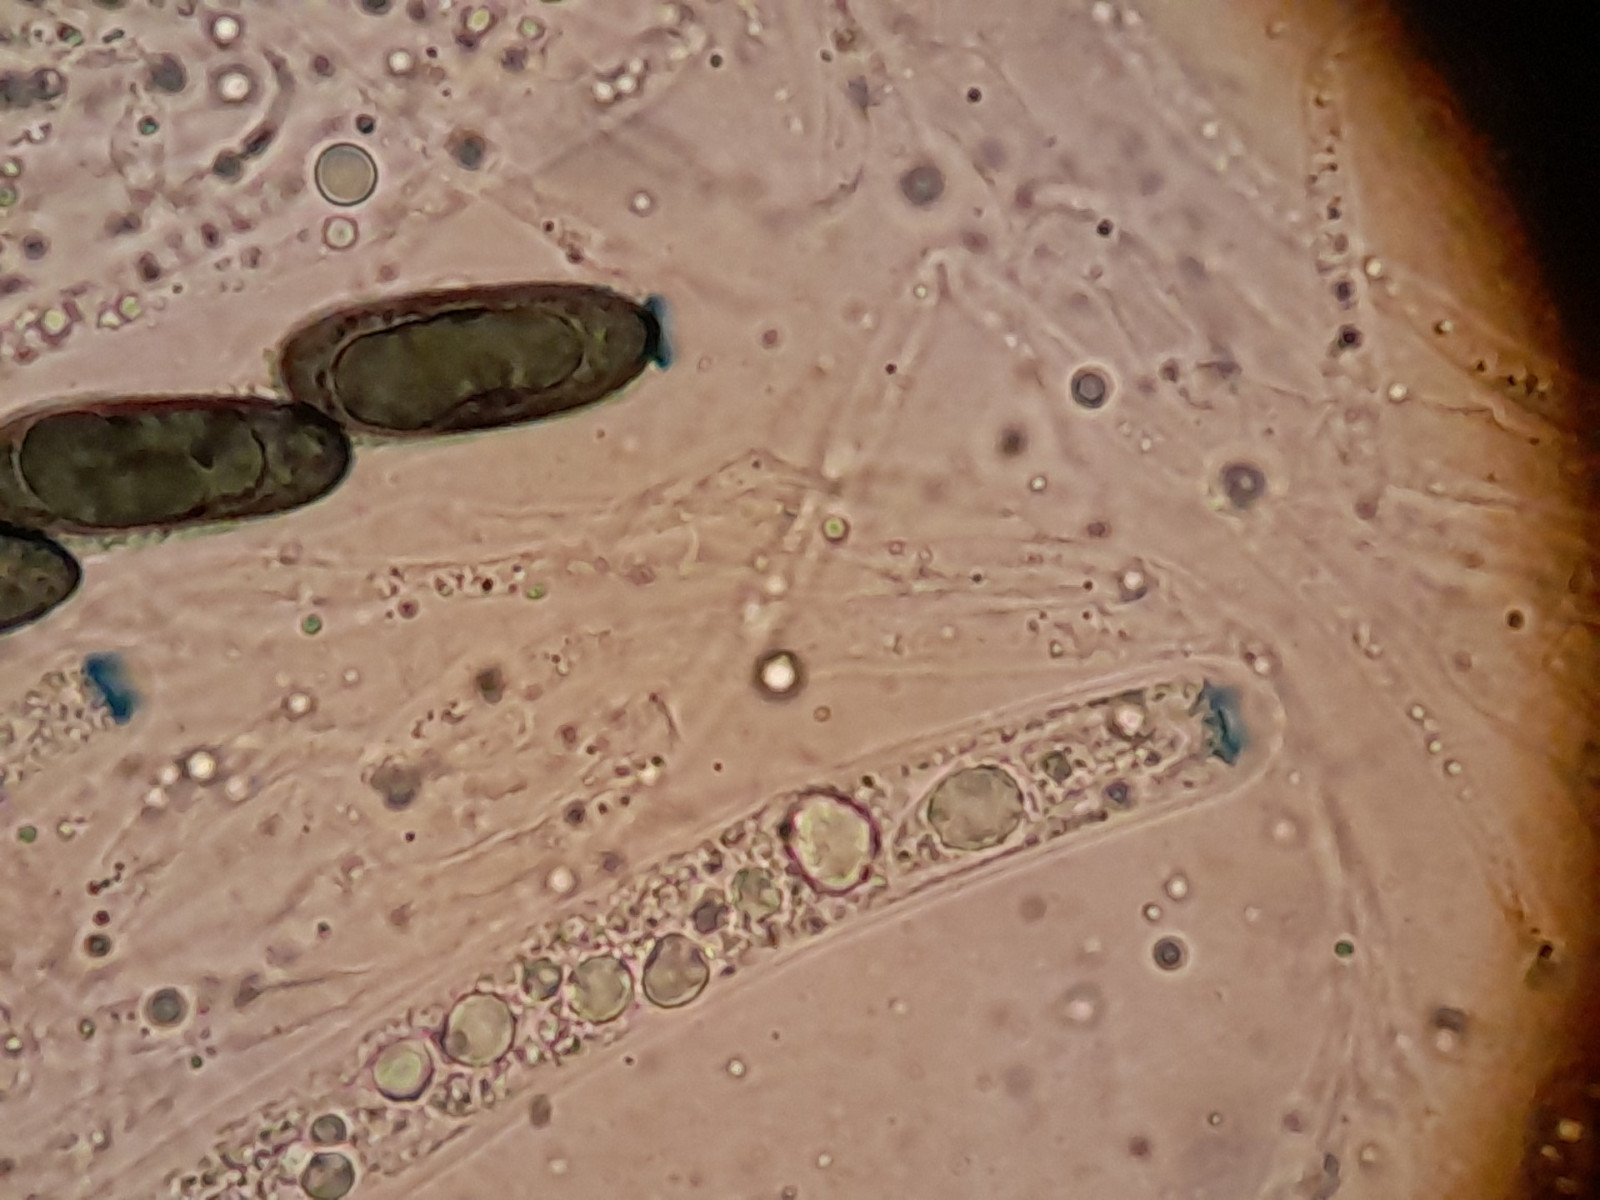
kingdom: Fungi
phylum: Ascomycota
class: Sordariomycetes
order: Xylariales
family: Xylariaceae
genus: Euepixylon
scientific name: Euepixylon udum
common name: ege-kuldyne
